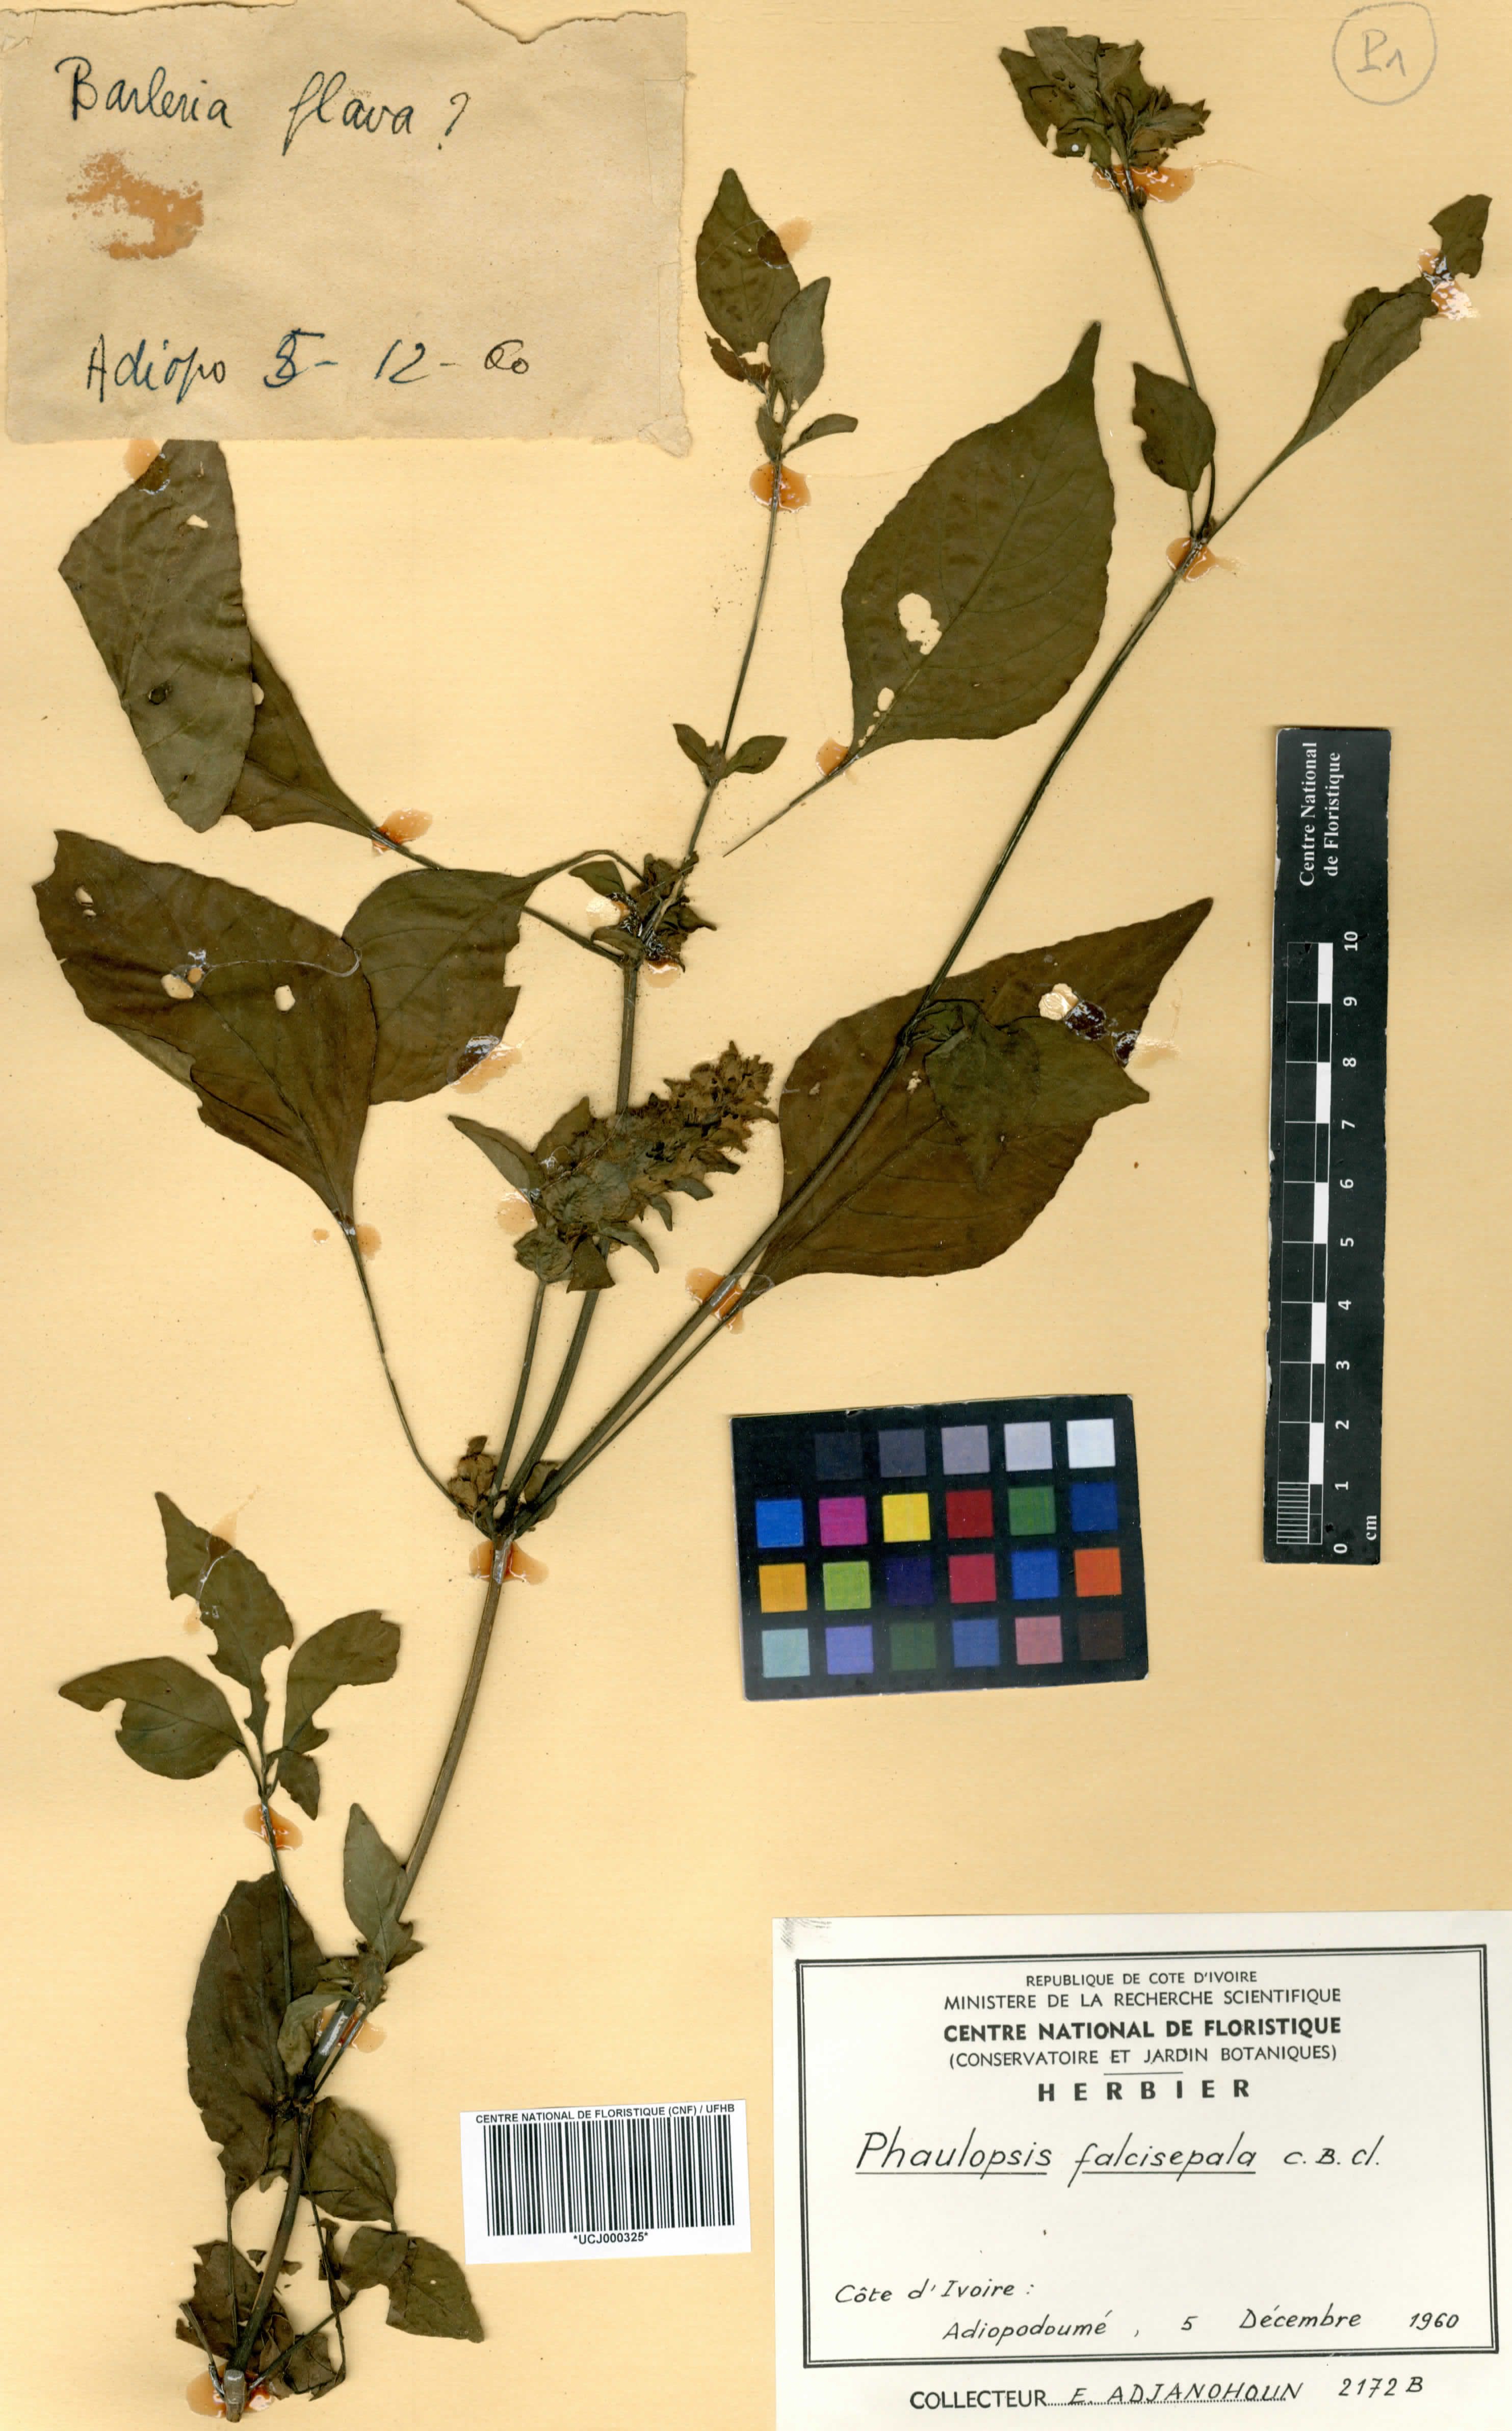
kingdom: Plantae
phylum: Tracheophyta
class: Magnoliopsida
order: Lamiales
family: Acanthaceae
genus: Phaulopsis
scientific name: Phaulopsis ciliata
